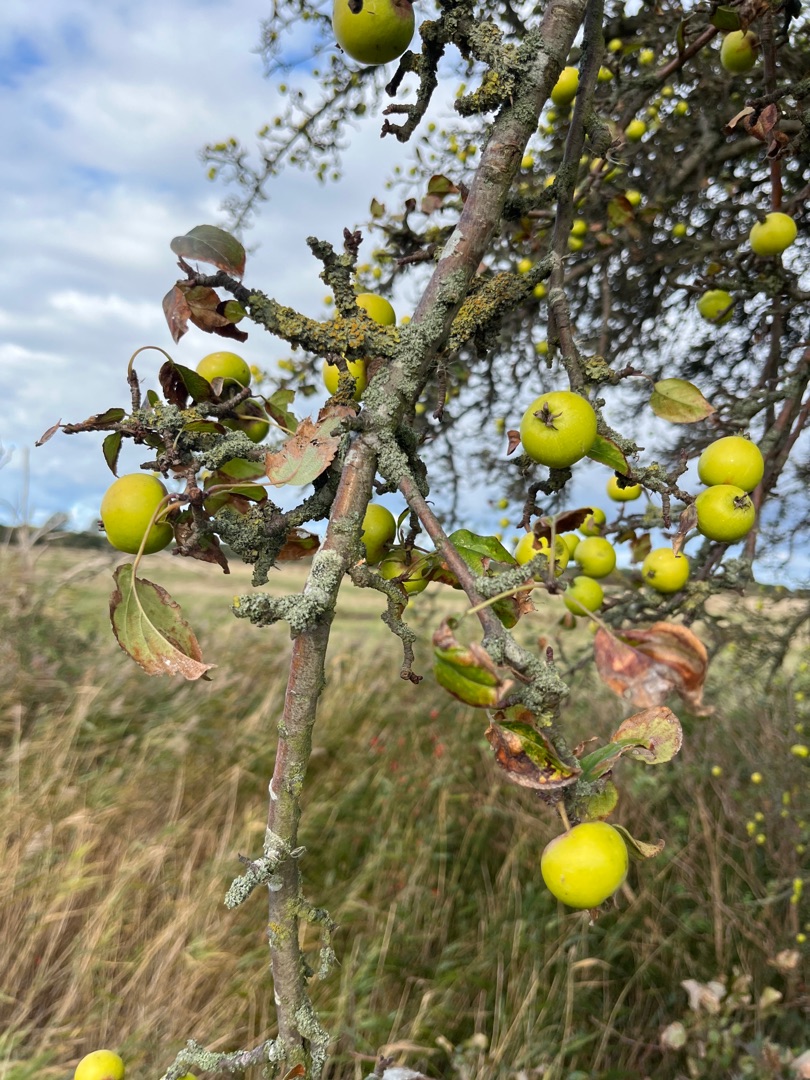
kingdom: Plantae
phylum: Tracheophyta
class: Magnoliopsida
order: Rosales
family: Rosaceae
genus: Malus
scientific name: Malus sylvestris
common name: Skov-æble
